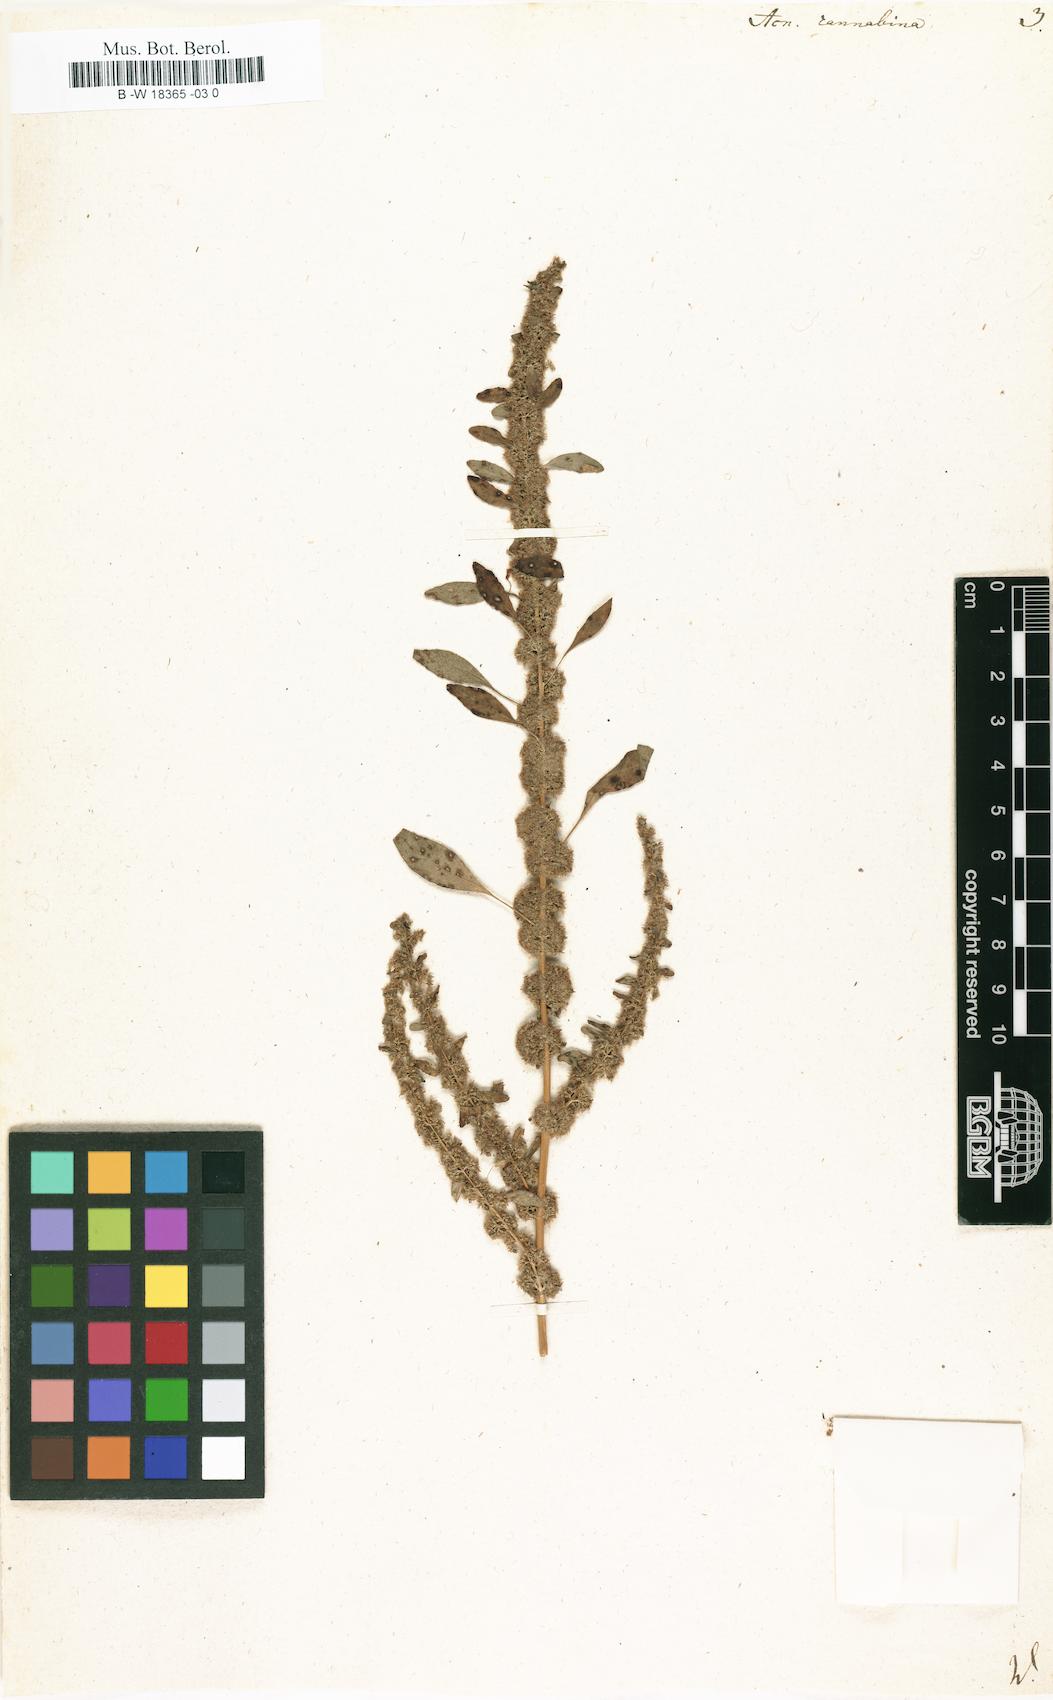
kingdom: Plantae
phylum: Tracheophyta
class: Magnoliopsida
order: Caryophyllales
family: Amaranthaceae
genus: Amaranthus
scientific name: Amaranthus cannabinus
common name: Salt-marsh water-hemp
